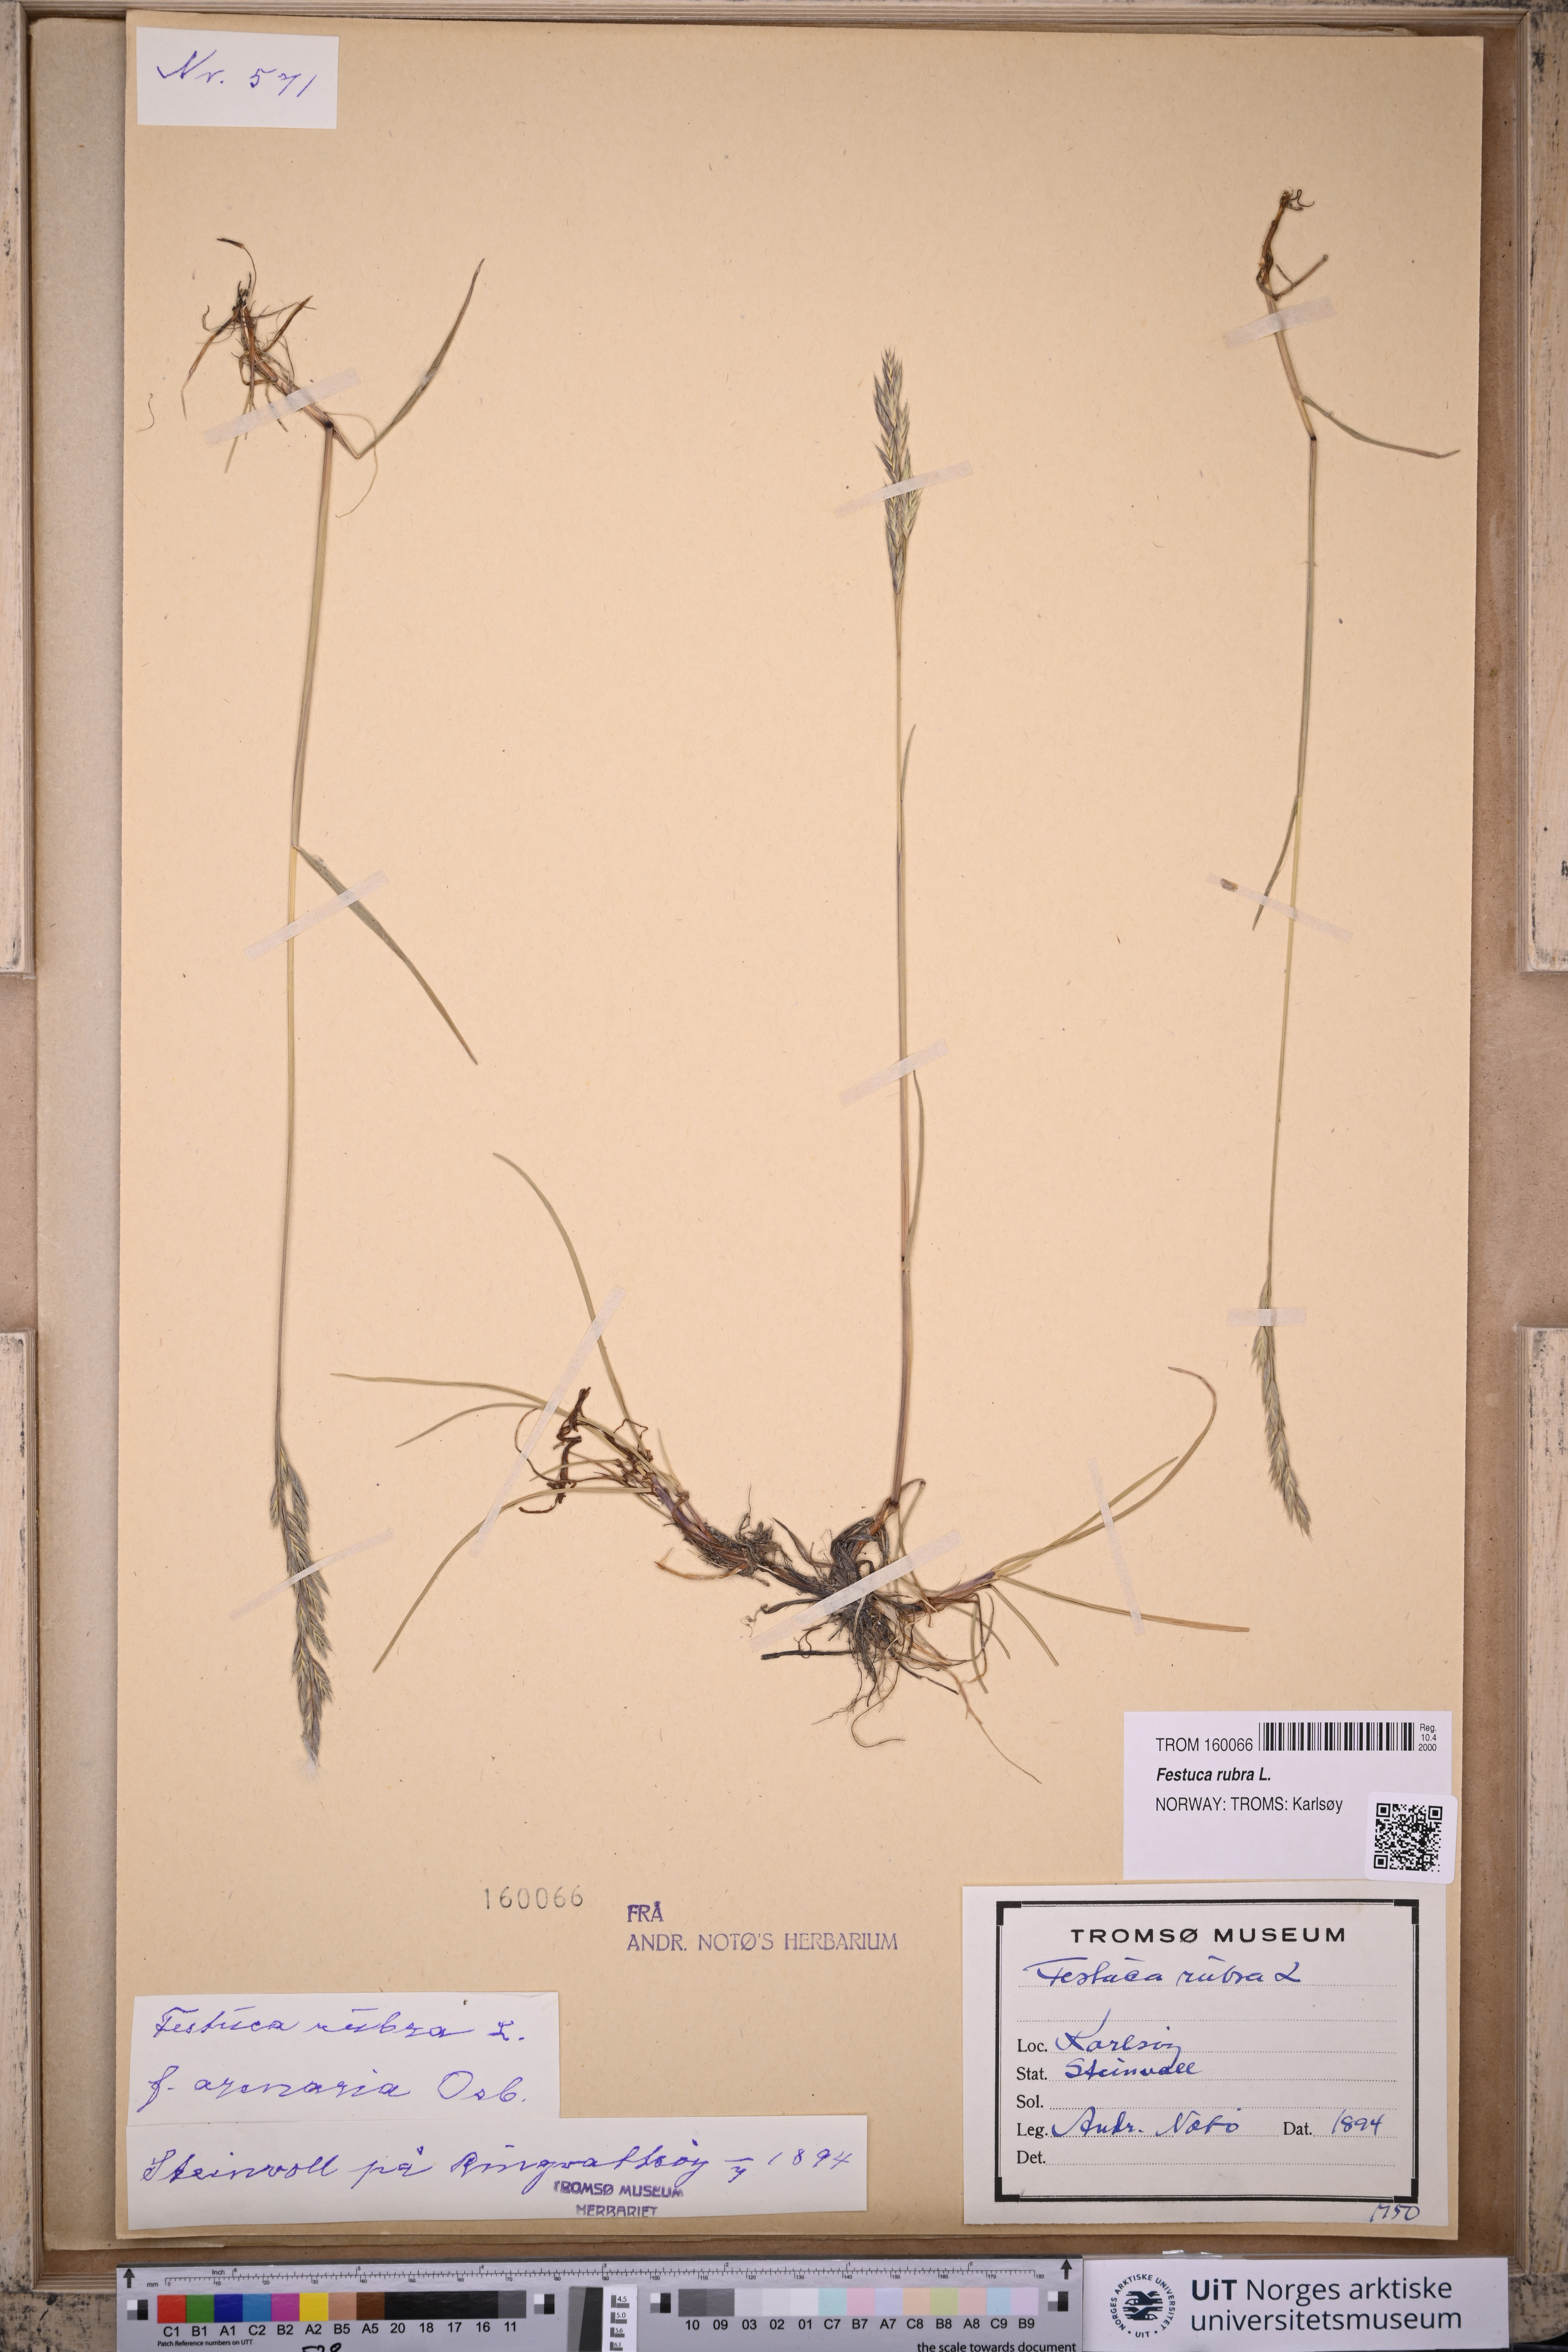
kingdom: Plantae
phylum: Tracheophyta
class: Liliopsida
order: Poales
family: Poaceae
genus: Festuca
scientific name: Festuca rubra
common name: Red fescue
